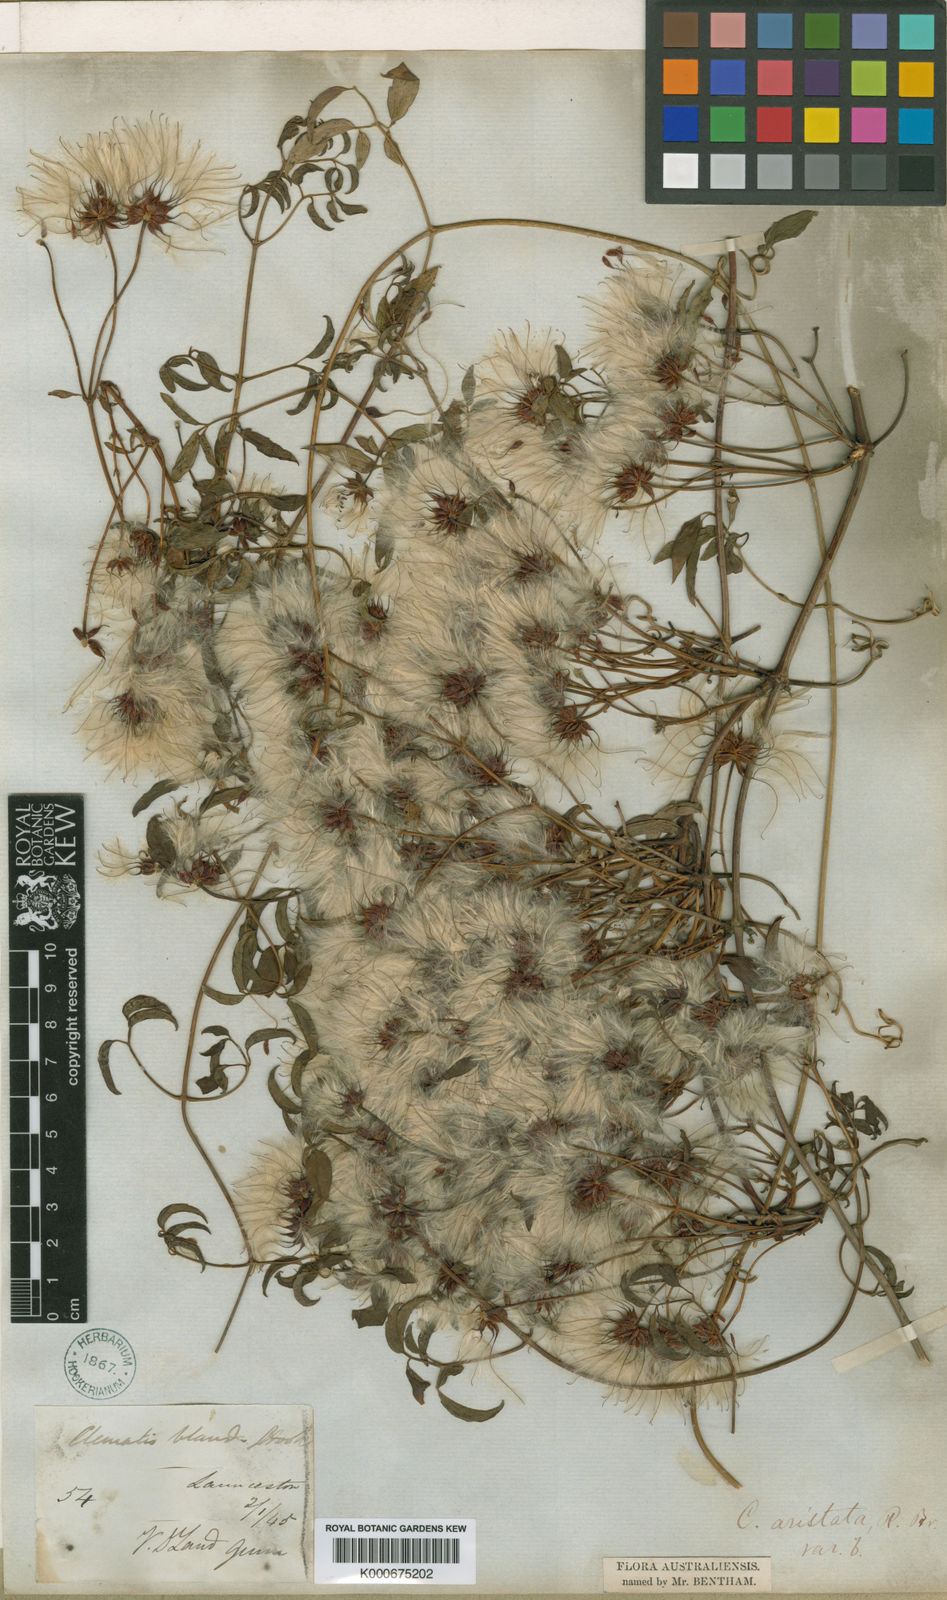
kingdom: Plantae
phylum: Tracheophyta
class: Magnoliopsida
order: Ranunculales
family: Ranunculaceae
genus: Clematis
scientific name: Clematis clitorioides
